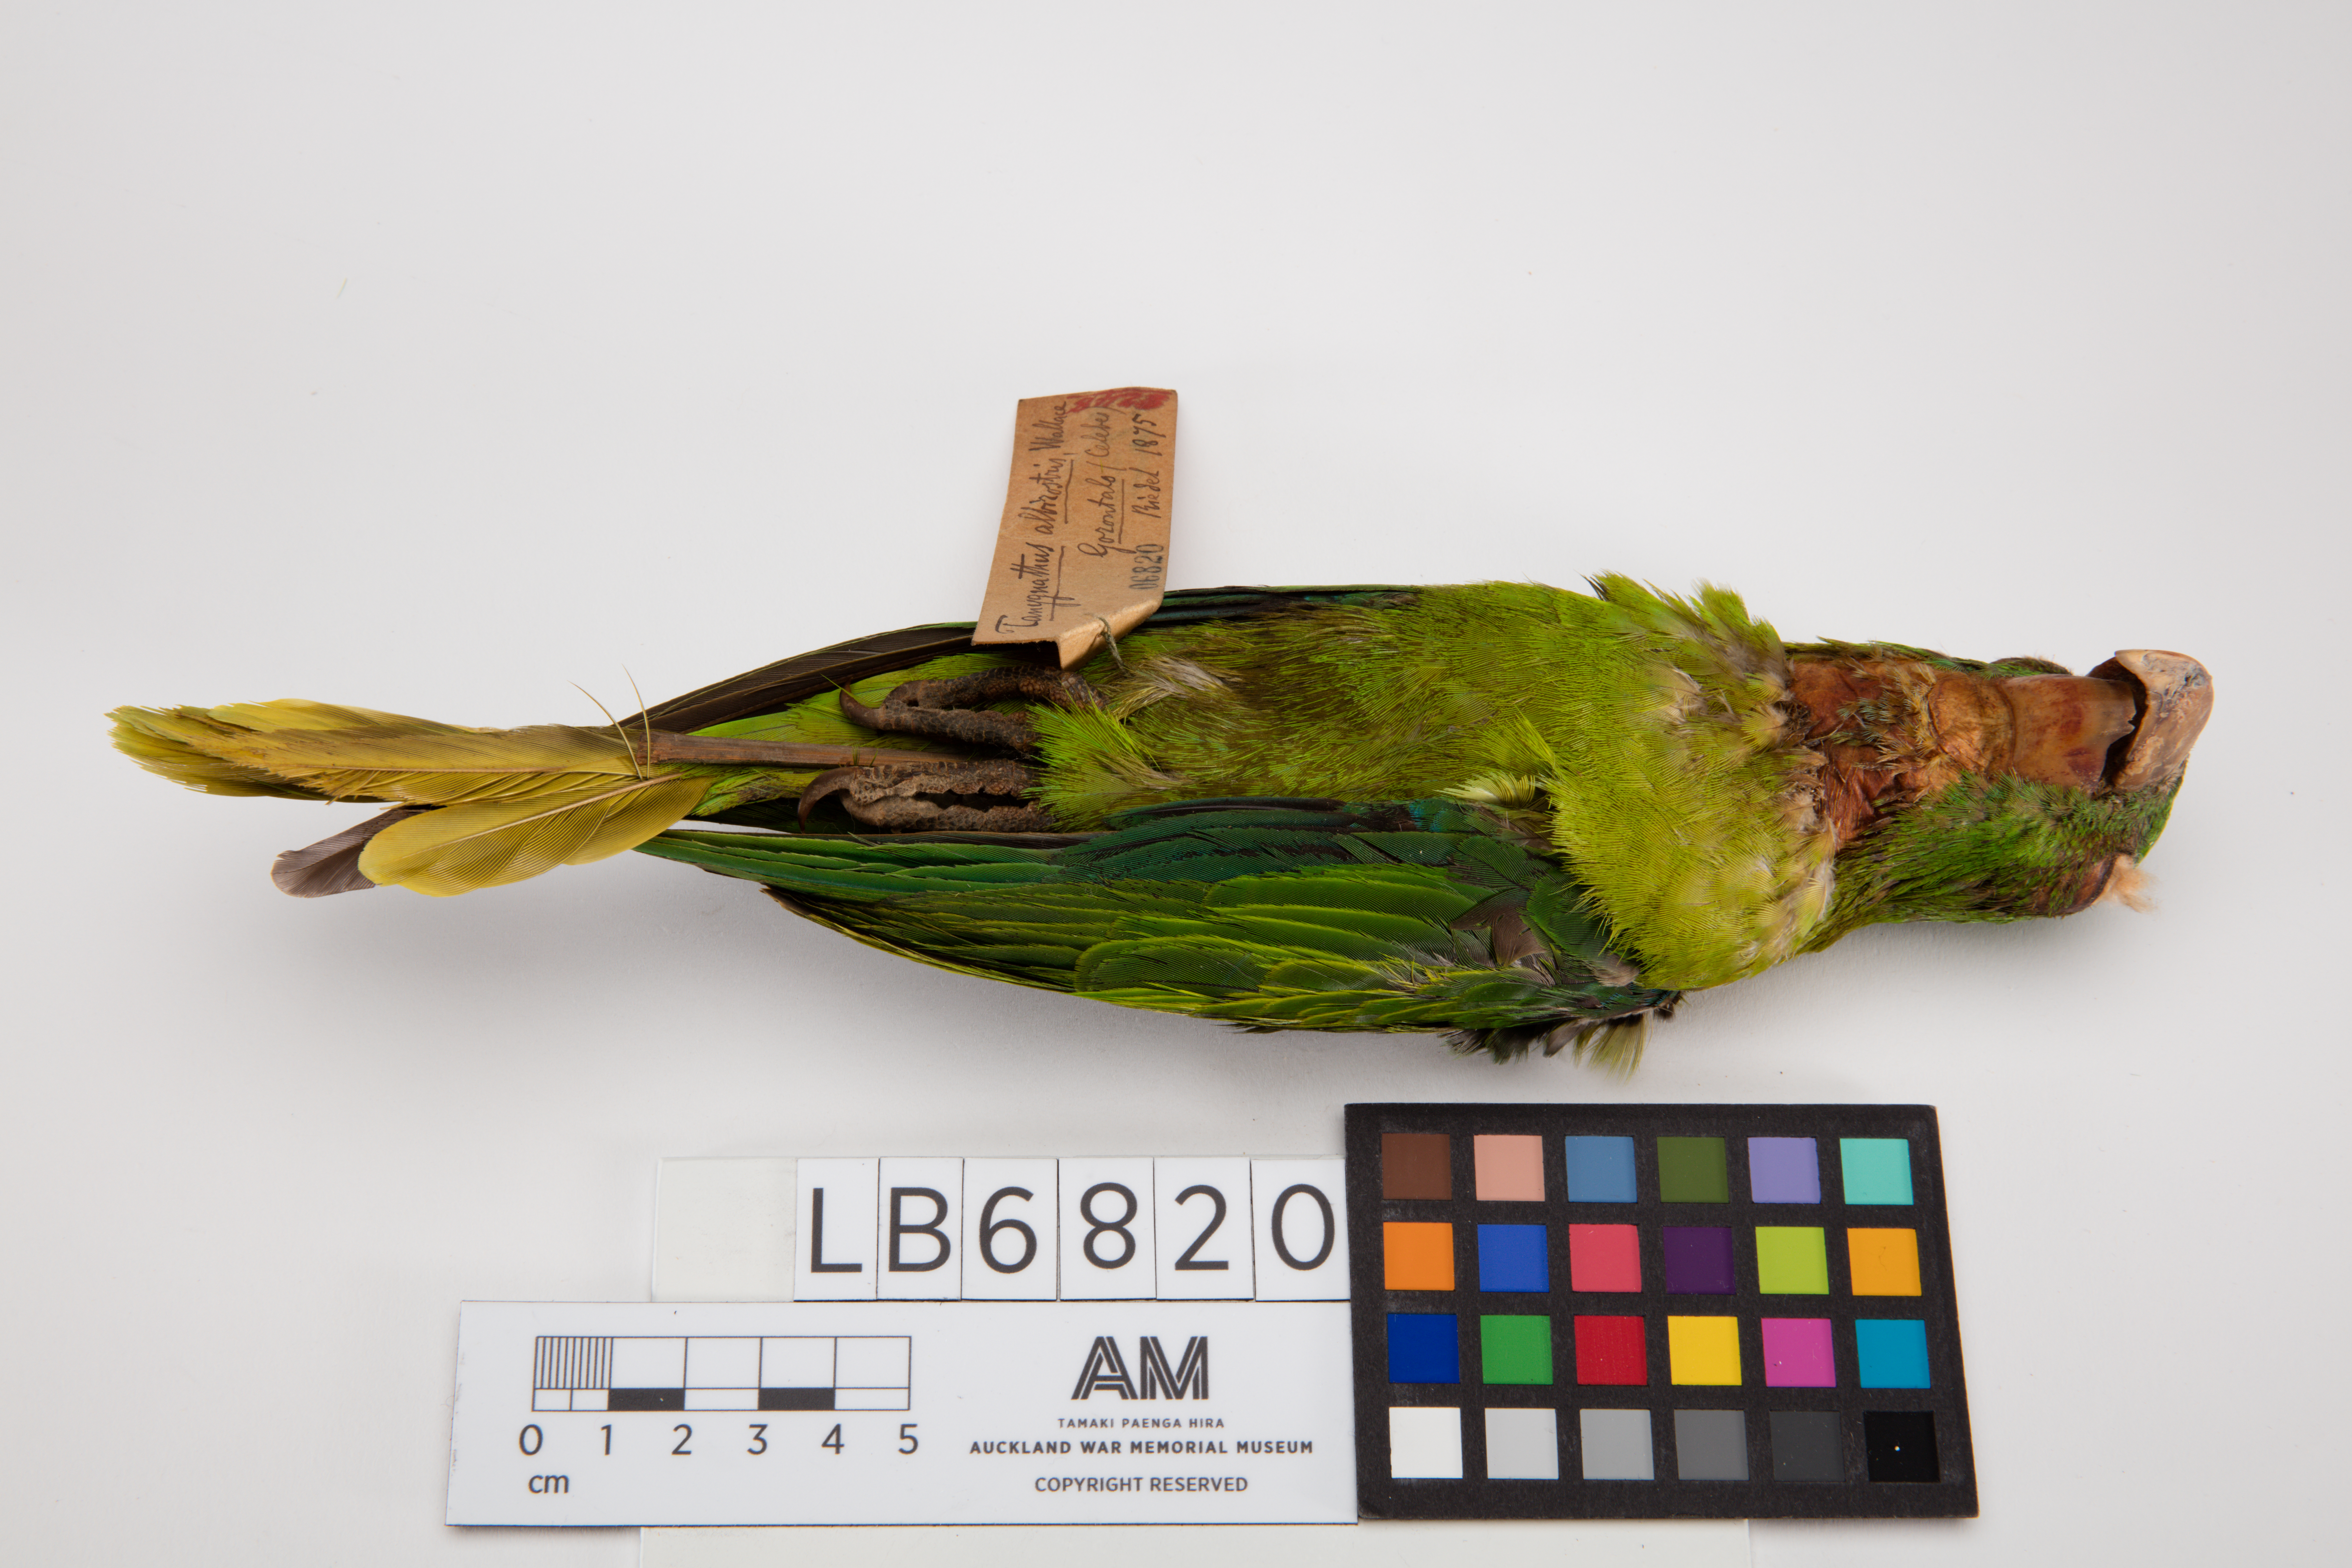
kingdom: Animalia
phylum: Chordata
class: Aves
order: Psittaciformes
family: Psittacidae
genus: Tanygnathus
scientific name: Tanygnathus sumatranus
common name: Blue-backed parrot
